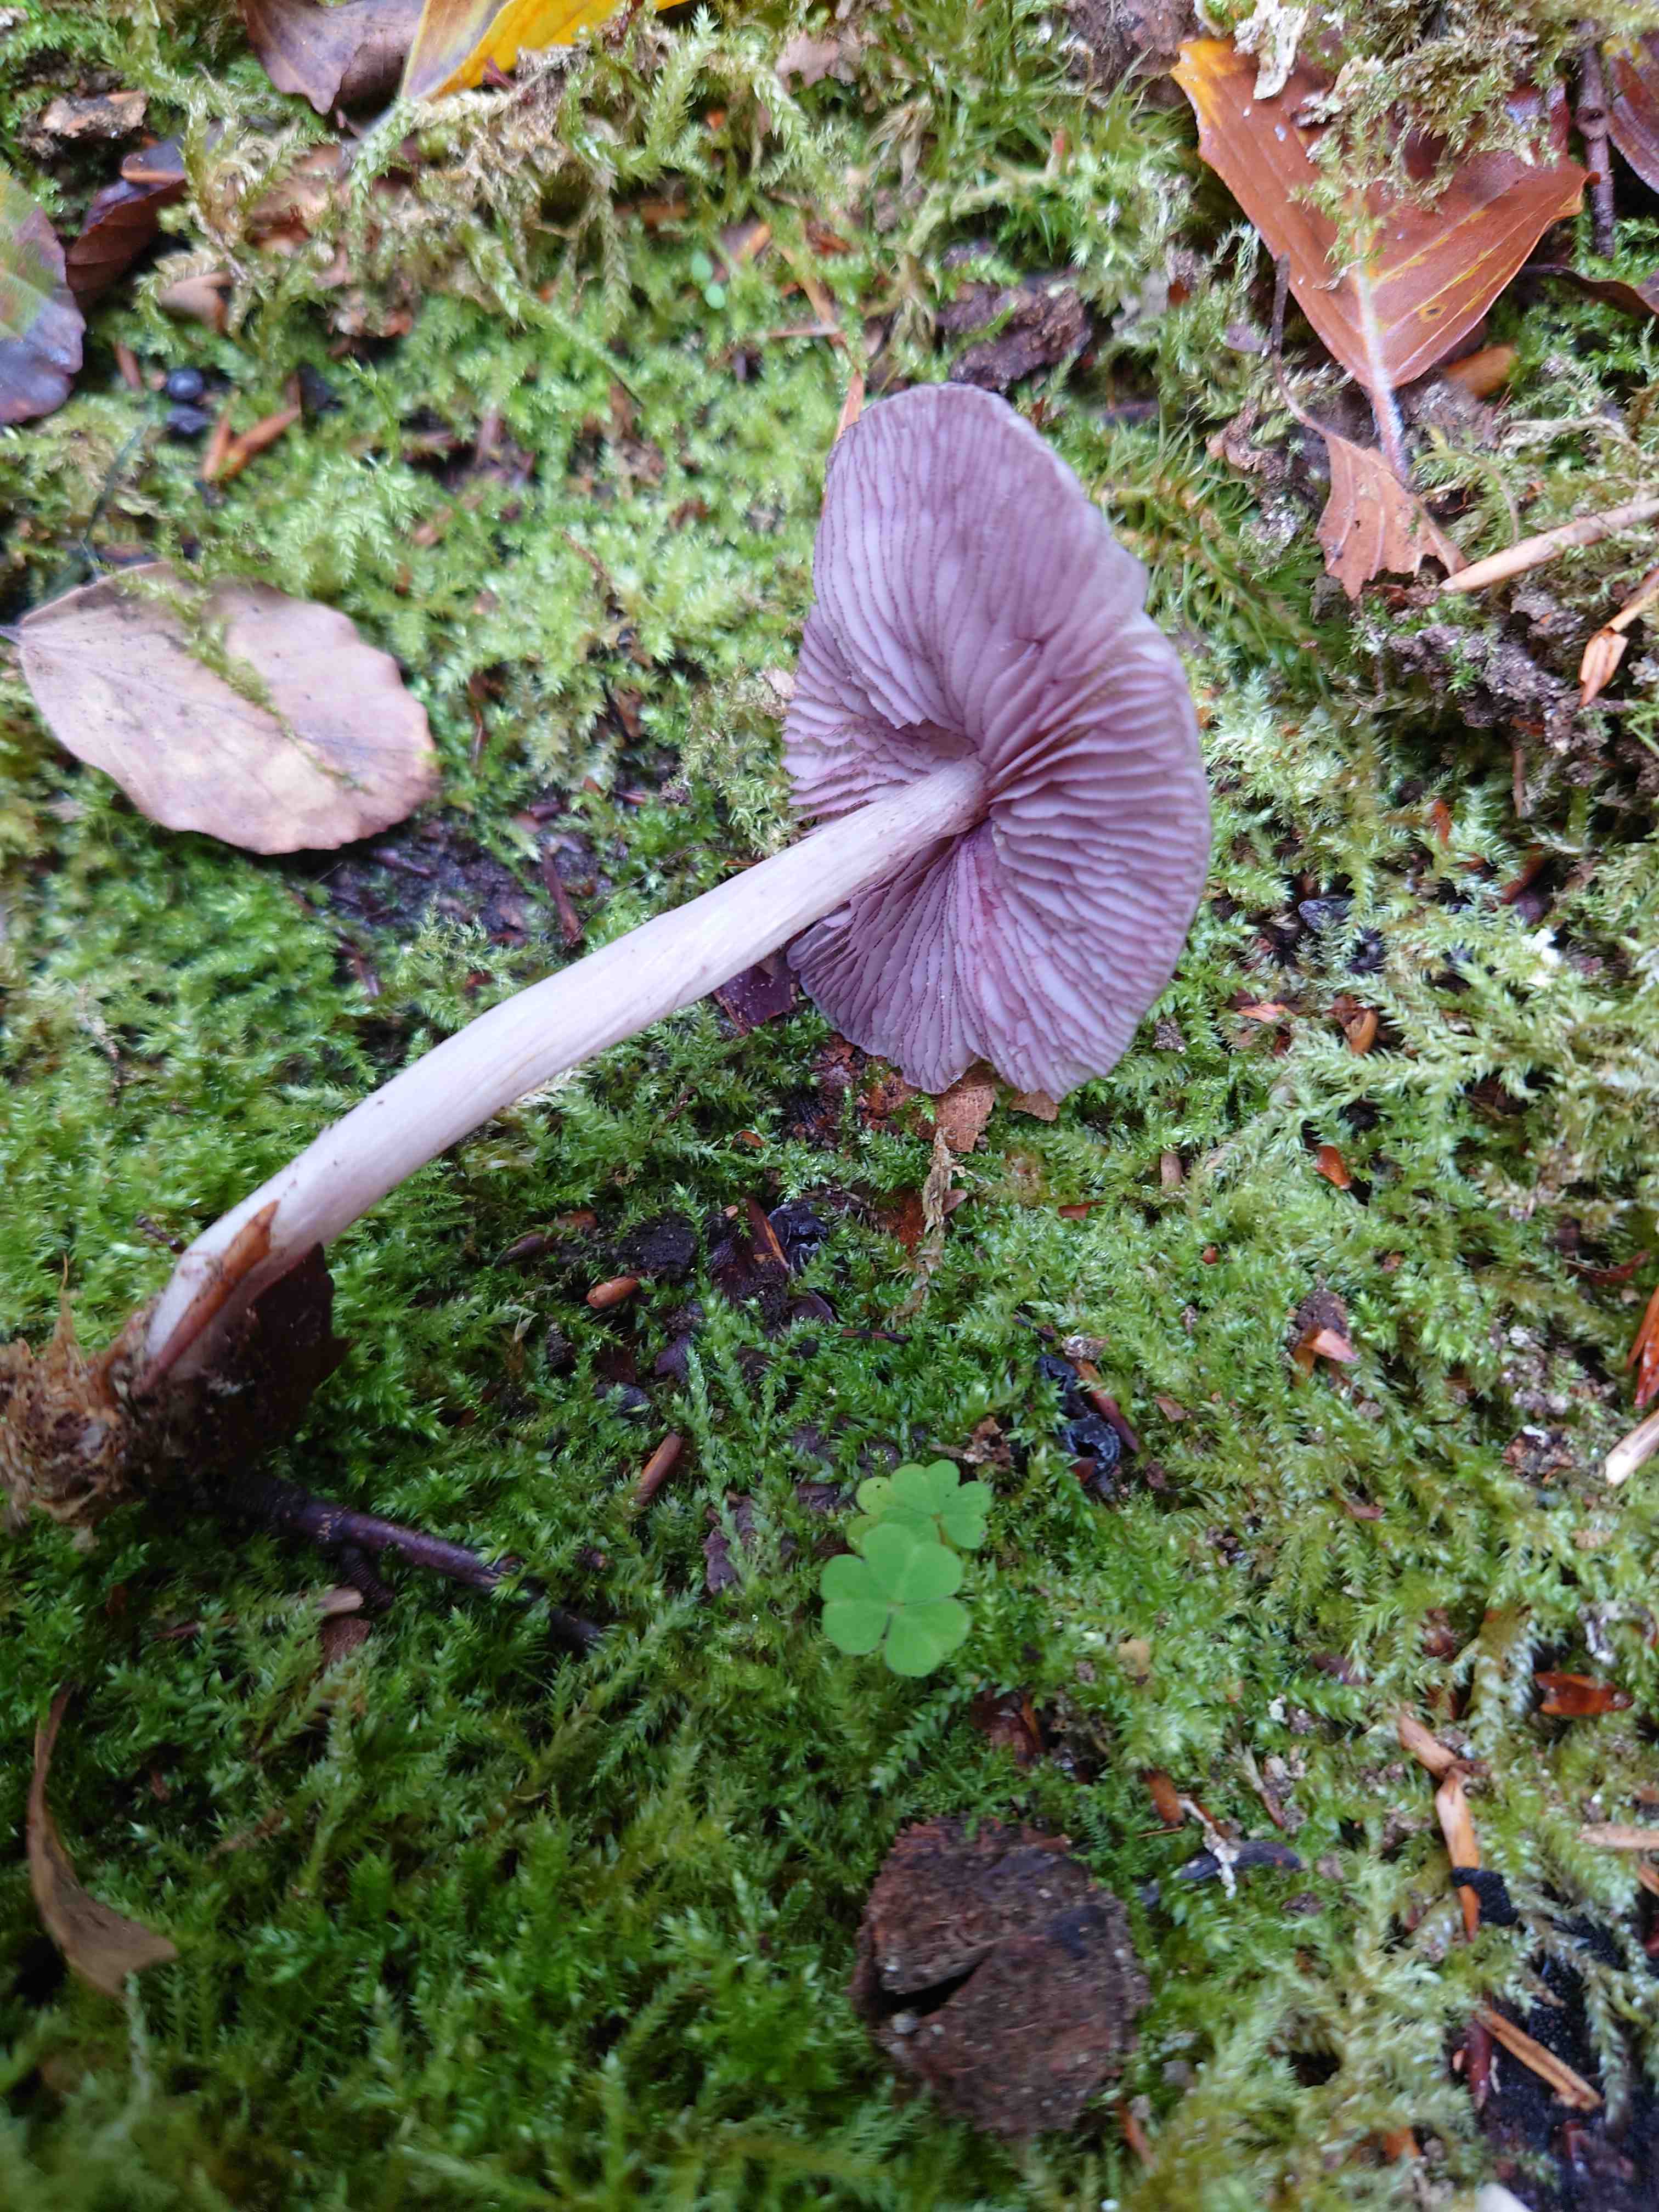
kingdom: Fungi
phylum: Basidiomycota
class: Agaricomycetes
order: Agaricales
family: Mycenaceae
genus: Mycena
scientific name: Mycena pelianthina
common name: mørkbladet huesvamp
